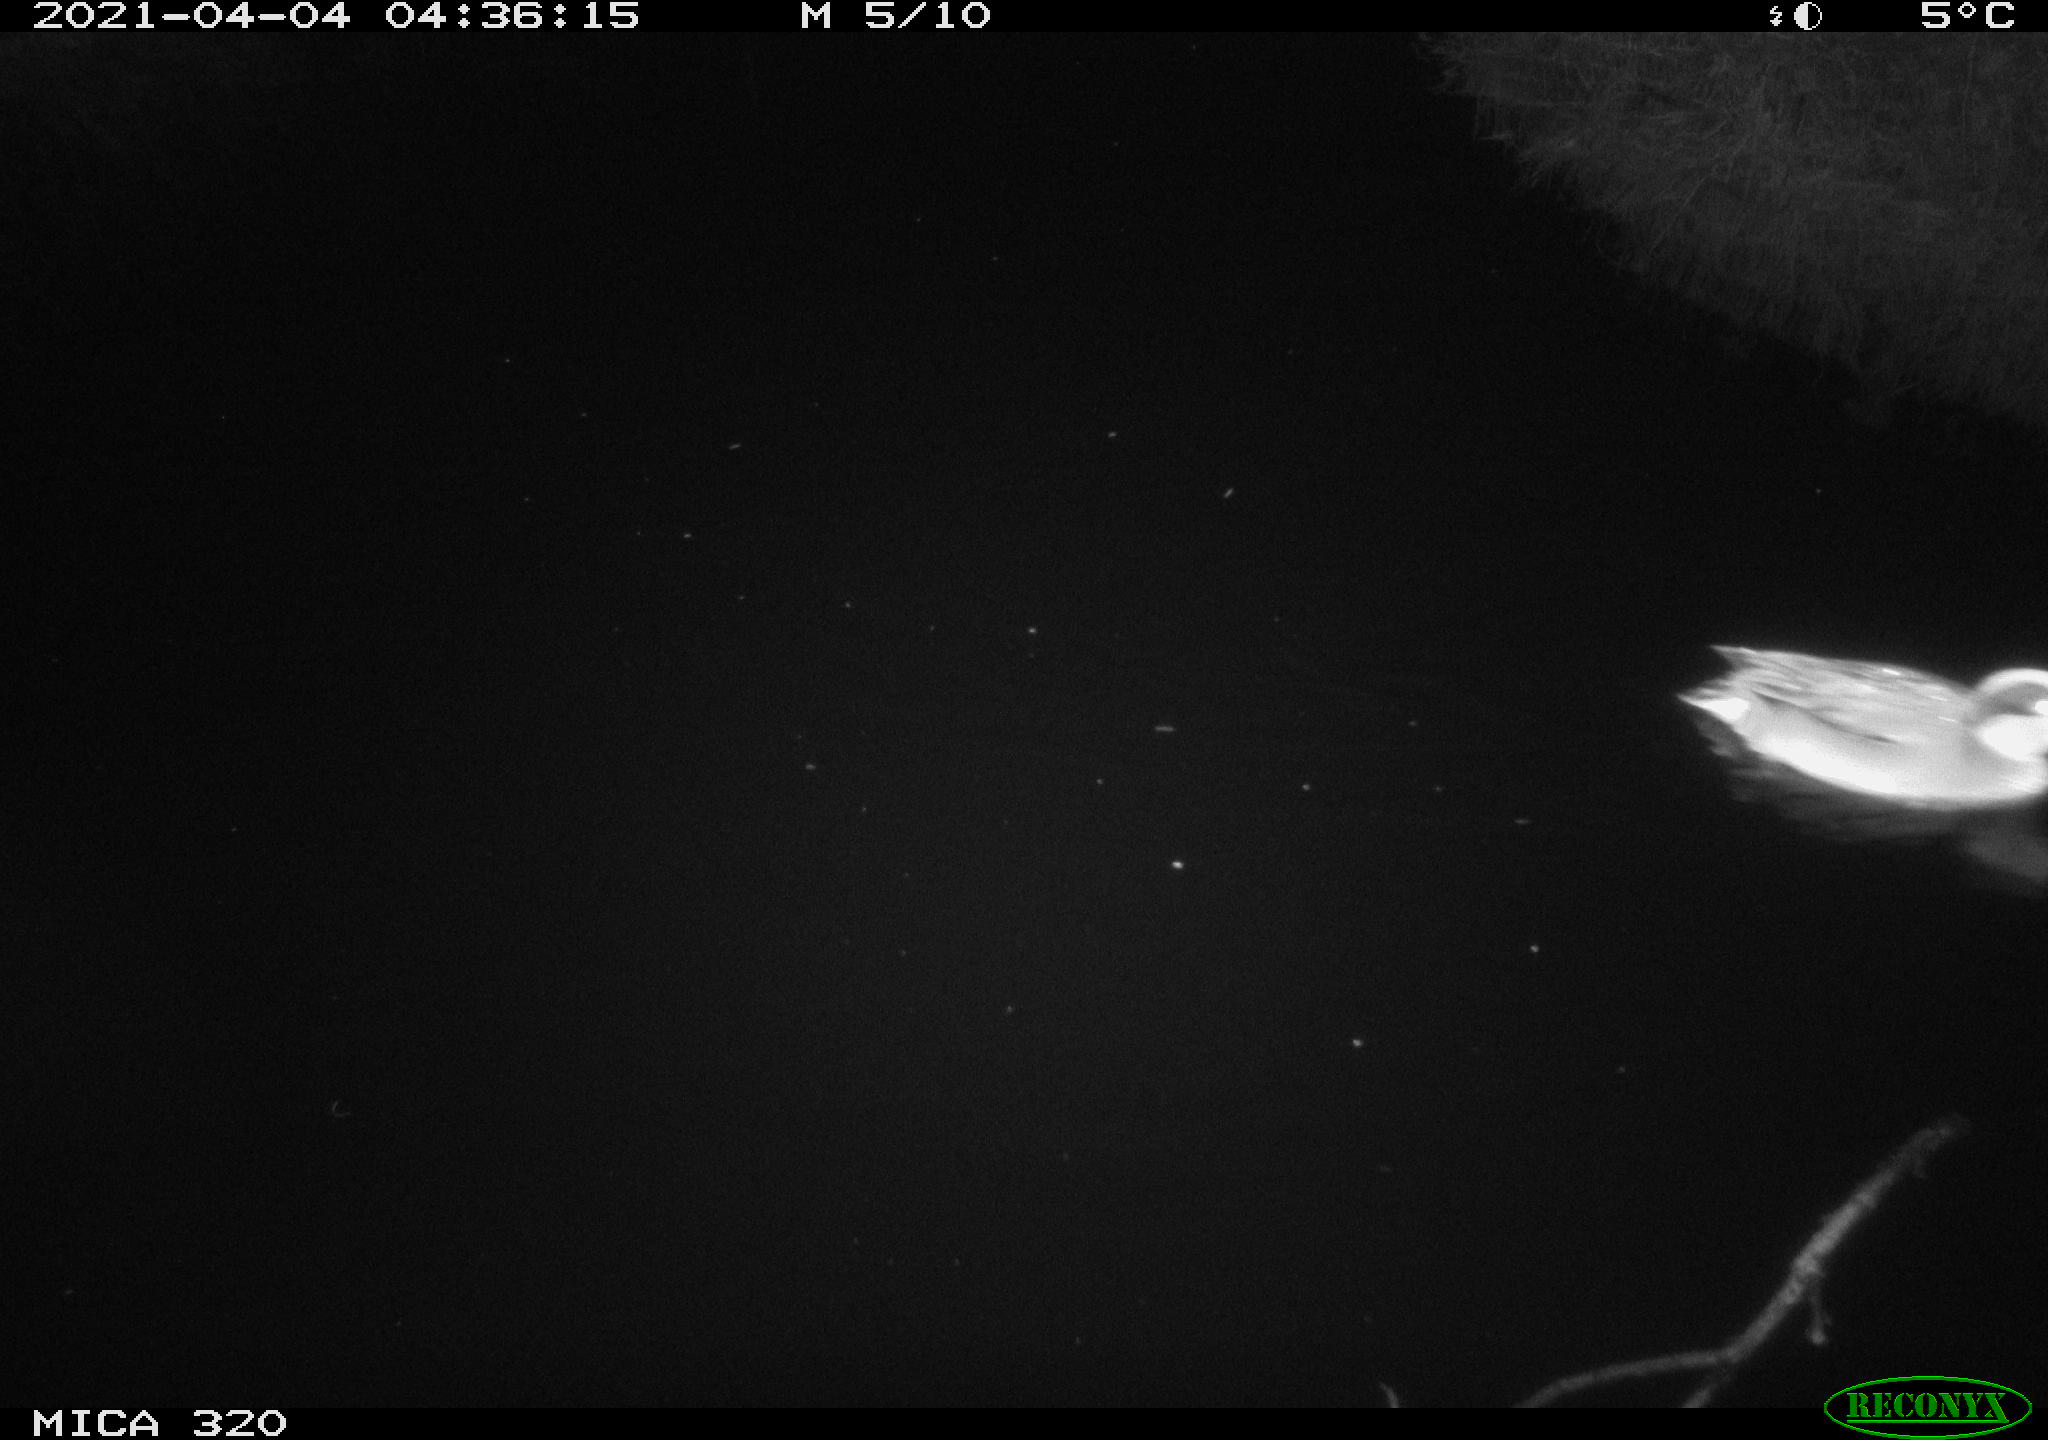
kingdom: Animalia
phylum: Chordata
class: Aves
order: Anseriformes
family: Anatidae
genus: Anas
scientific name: Anas platyrhynchos
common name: Mallard
